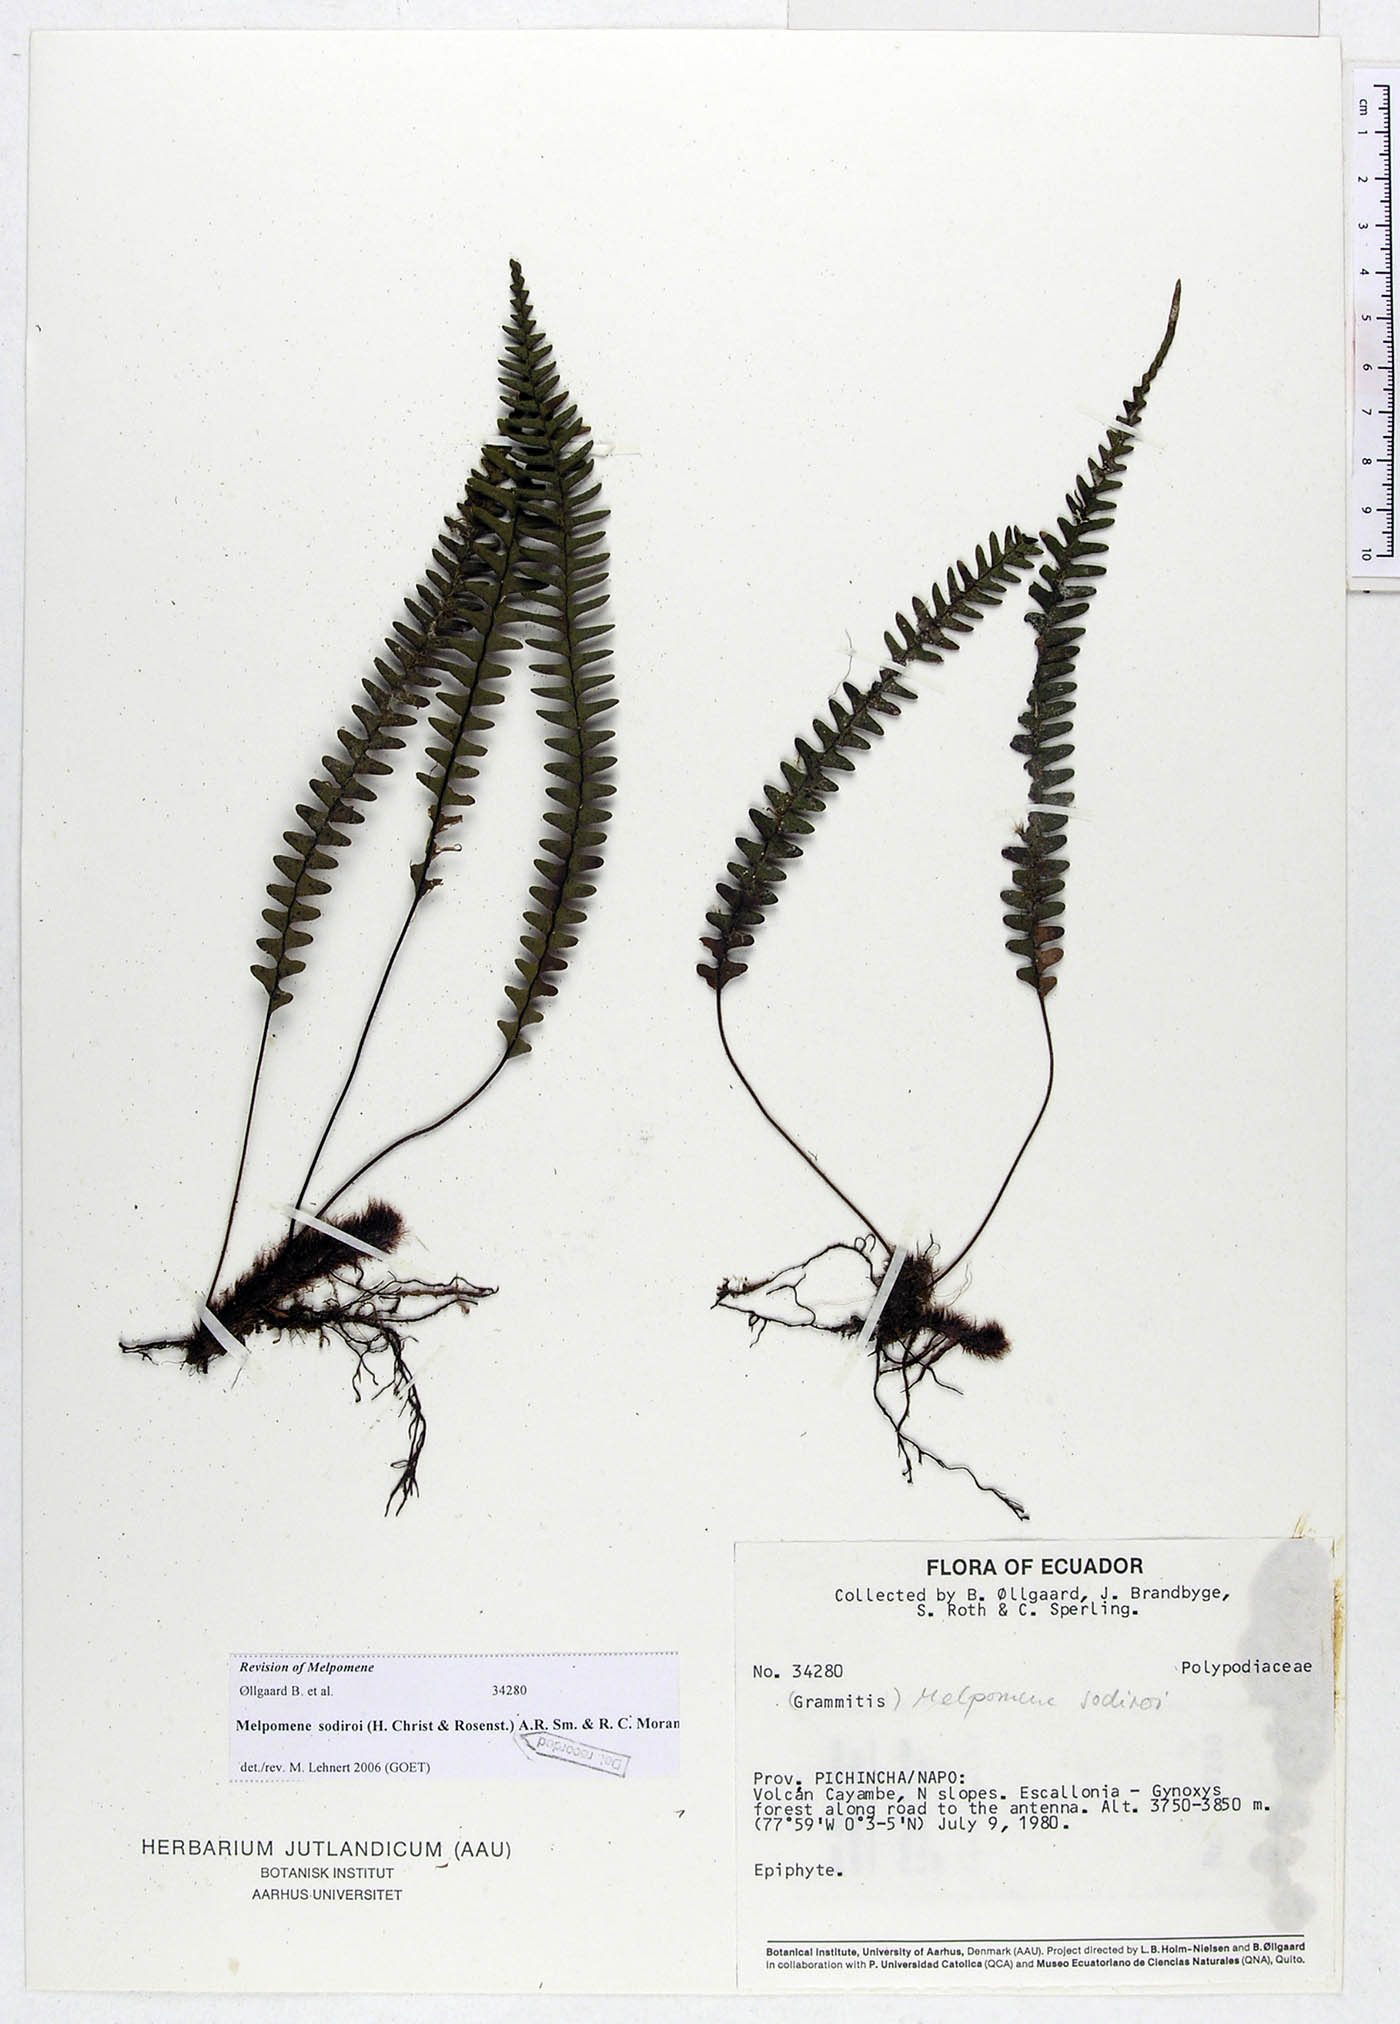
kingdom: Plantae
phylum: Tracheophyta
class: Polypodiopsida
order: Polypodiales
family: Polypodiaceae
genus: Melpomene
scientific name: Melpomene sodiroi
